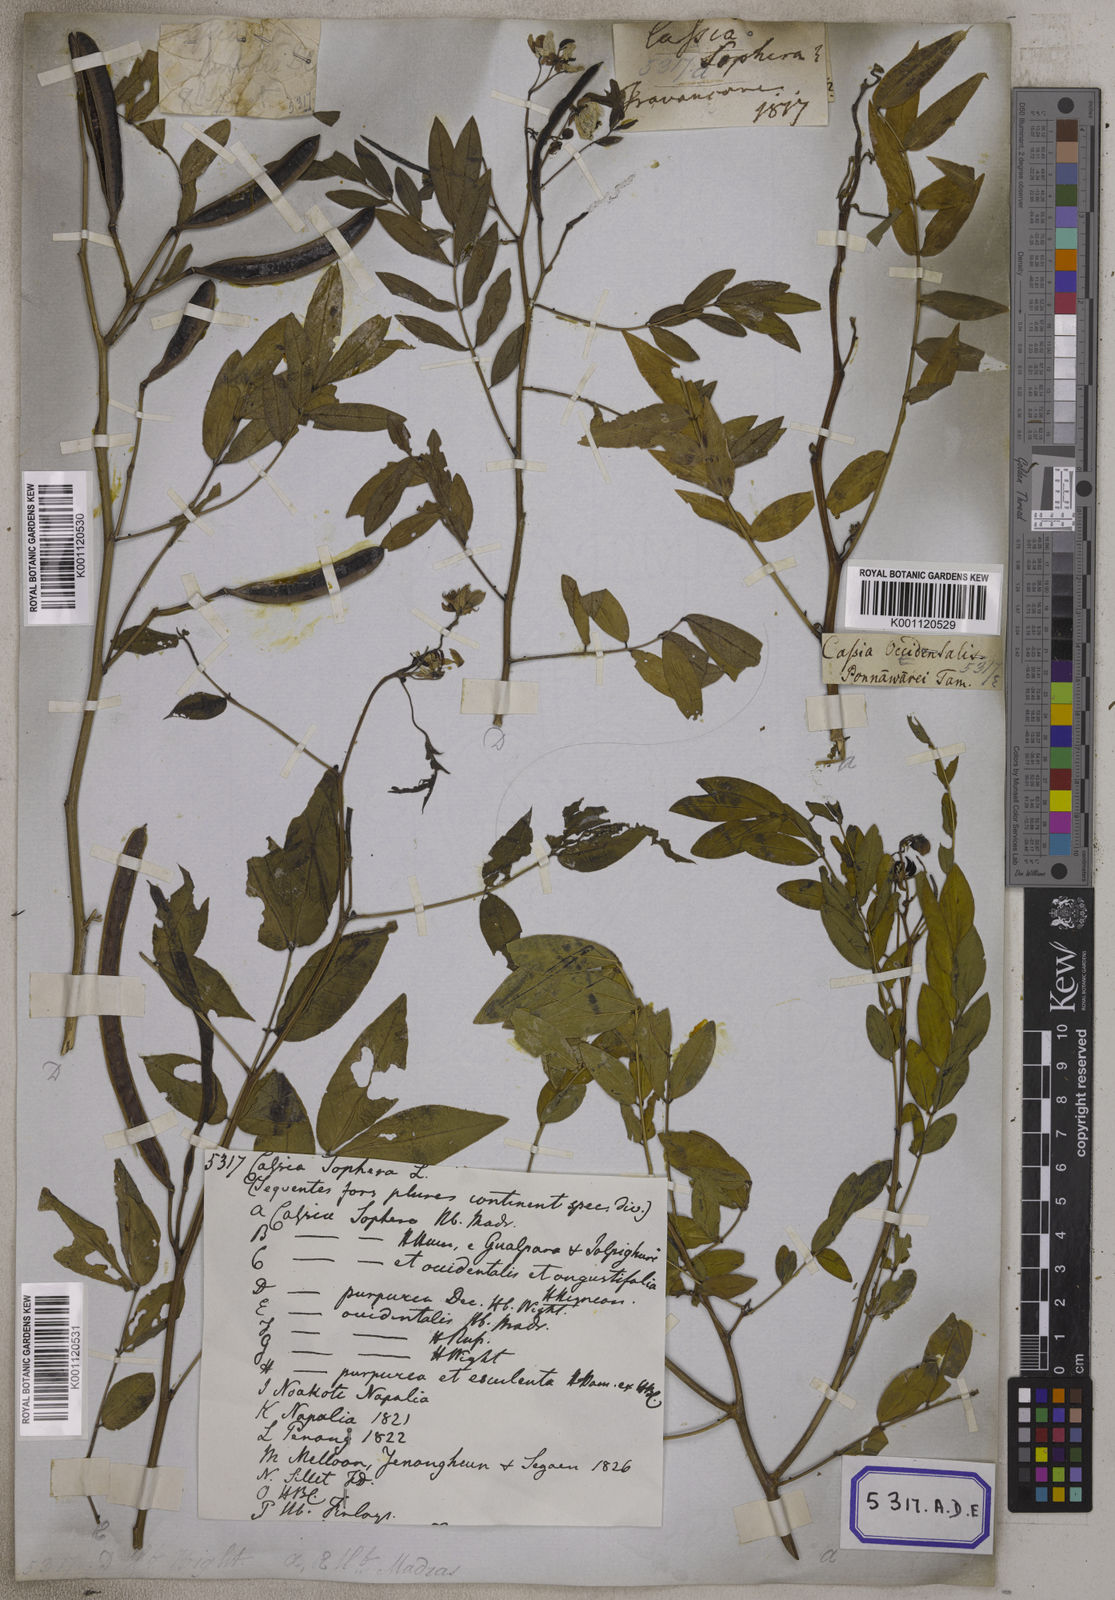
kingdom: Plantae
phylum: Tracheophyta
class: Magnoliopsida
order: Fabales
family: Fabaceae
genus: Cassia
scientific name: Cassia
